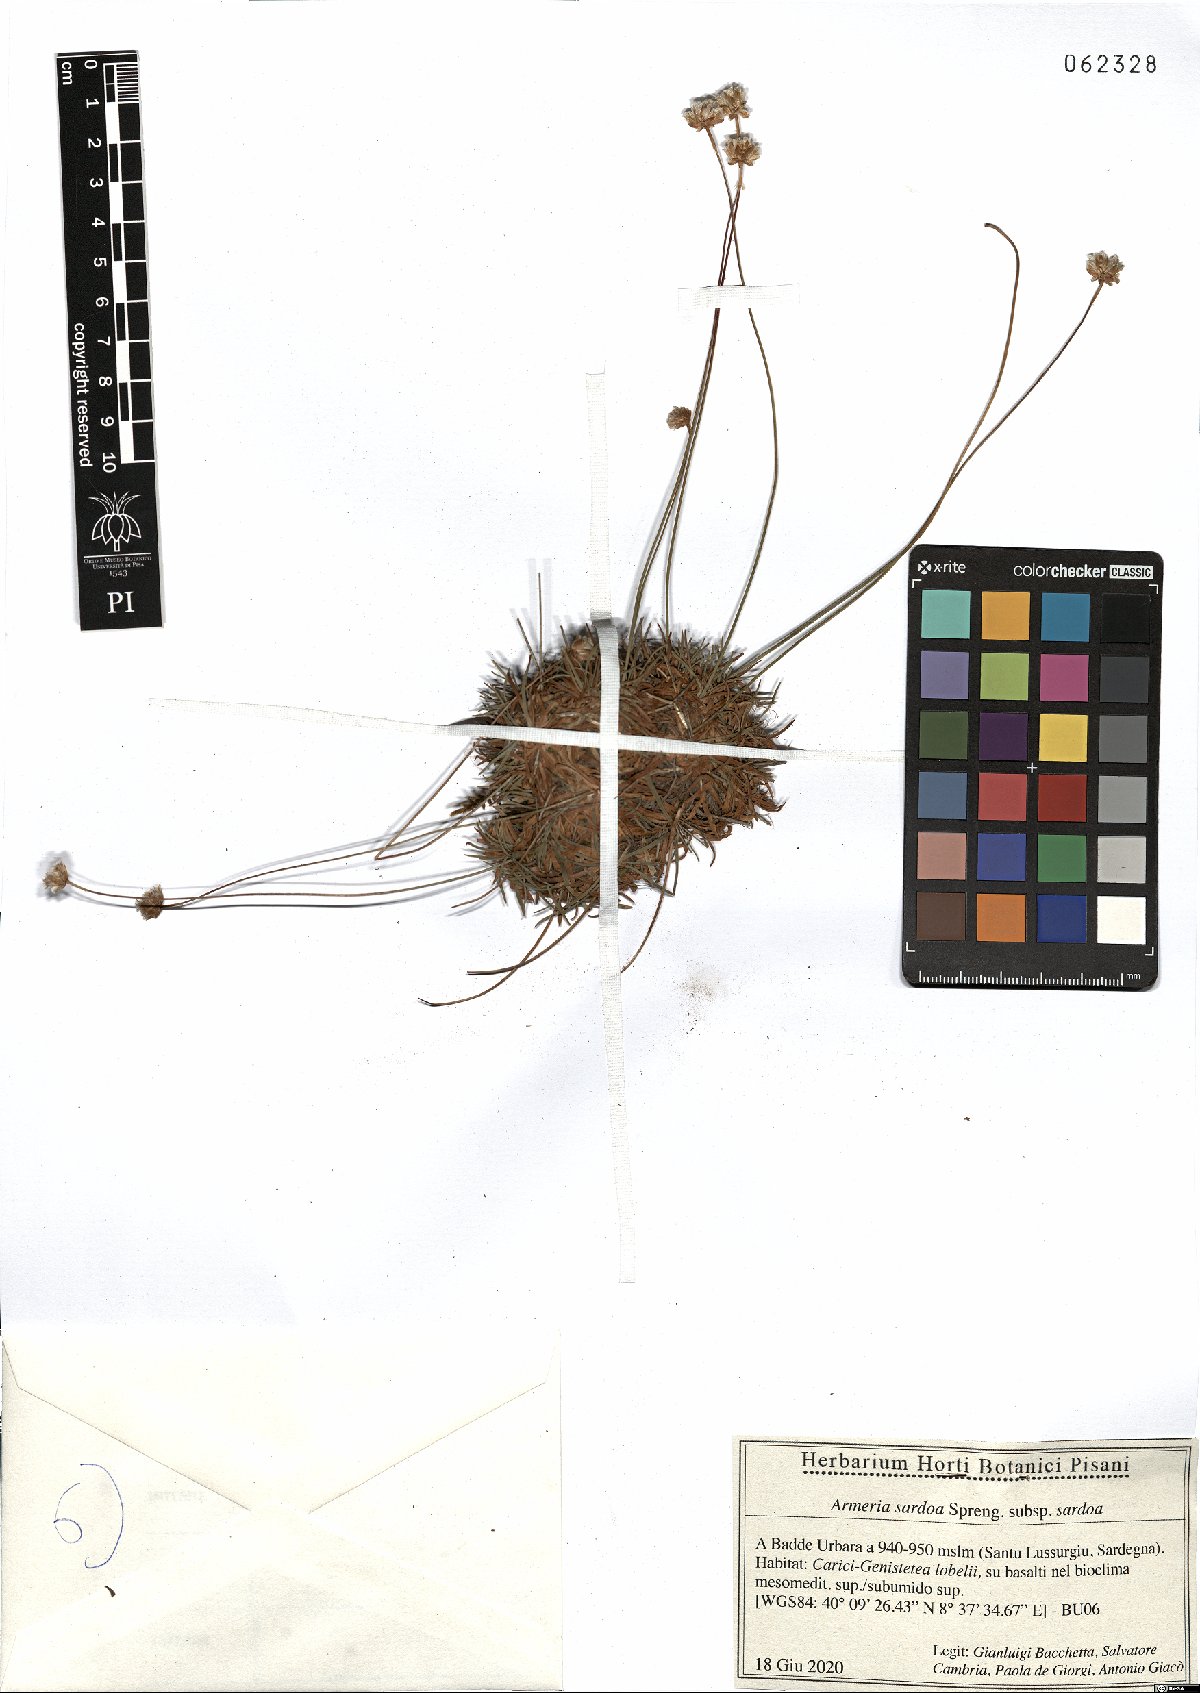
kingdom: Plantae
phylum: Tracheophyta
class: Magnoliopsida
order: Caryophyllales
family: Plumbaginaceae
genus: Armeria
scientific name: Armeria sardoa
